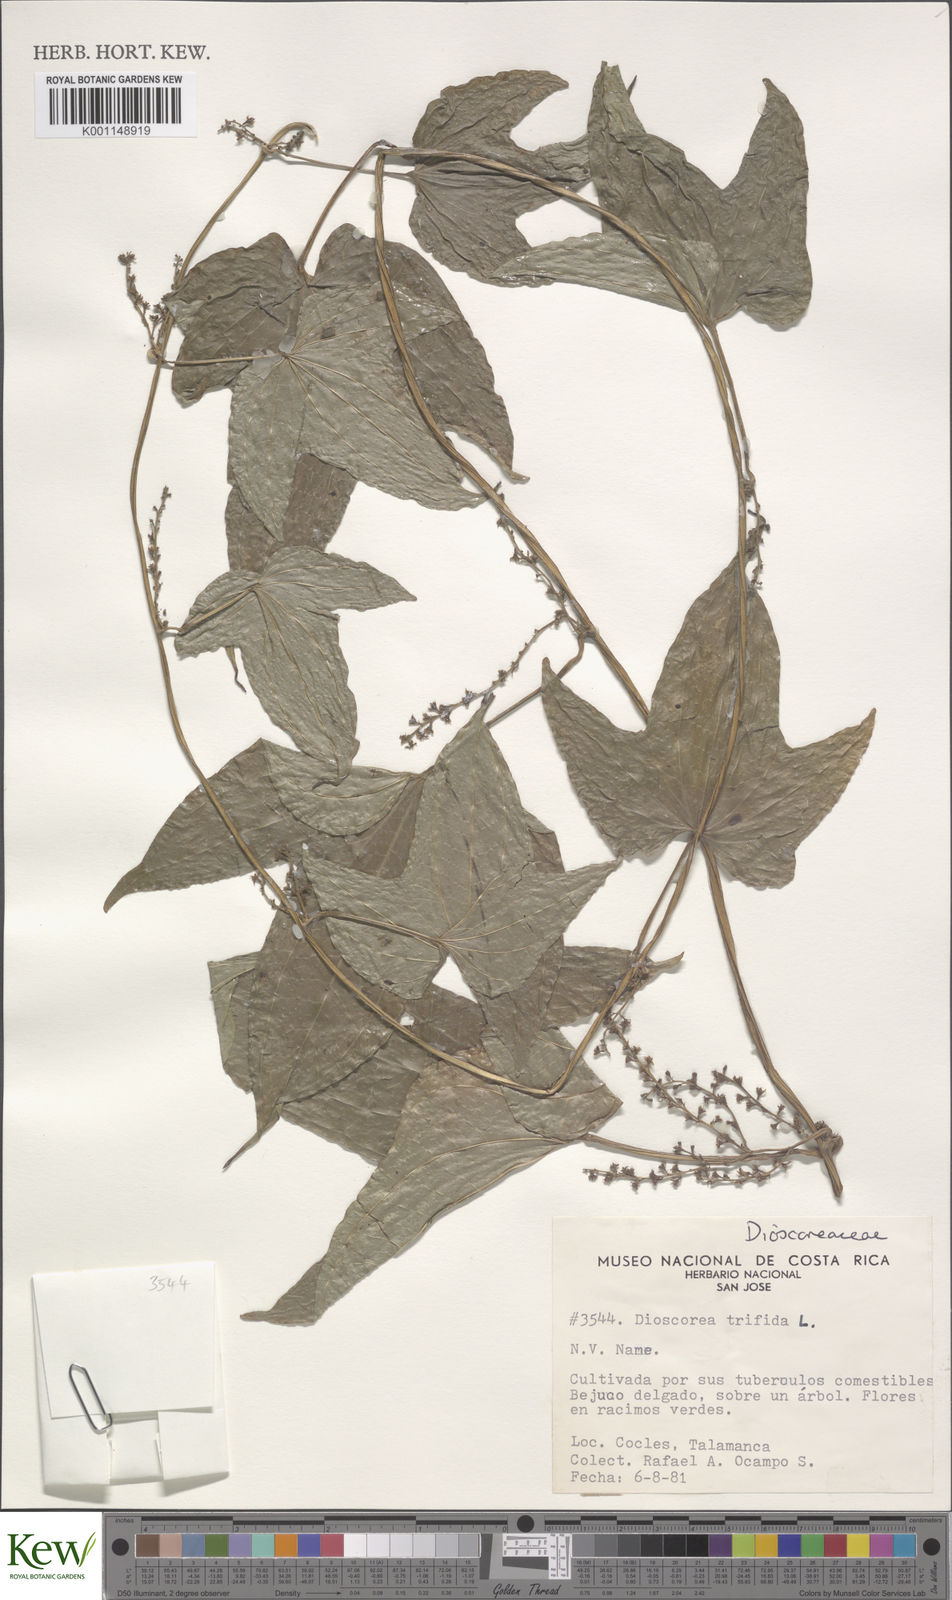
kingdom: Plantae
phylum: Tracheophyta
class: Liliopsida
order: Dioscoreales
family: Dioscoreaceae
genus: Dioscorea
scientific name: Dioscorea trifida
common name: Cush-cush
